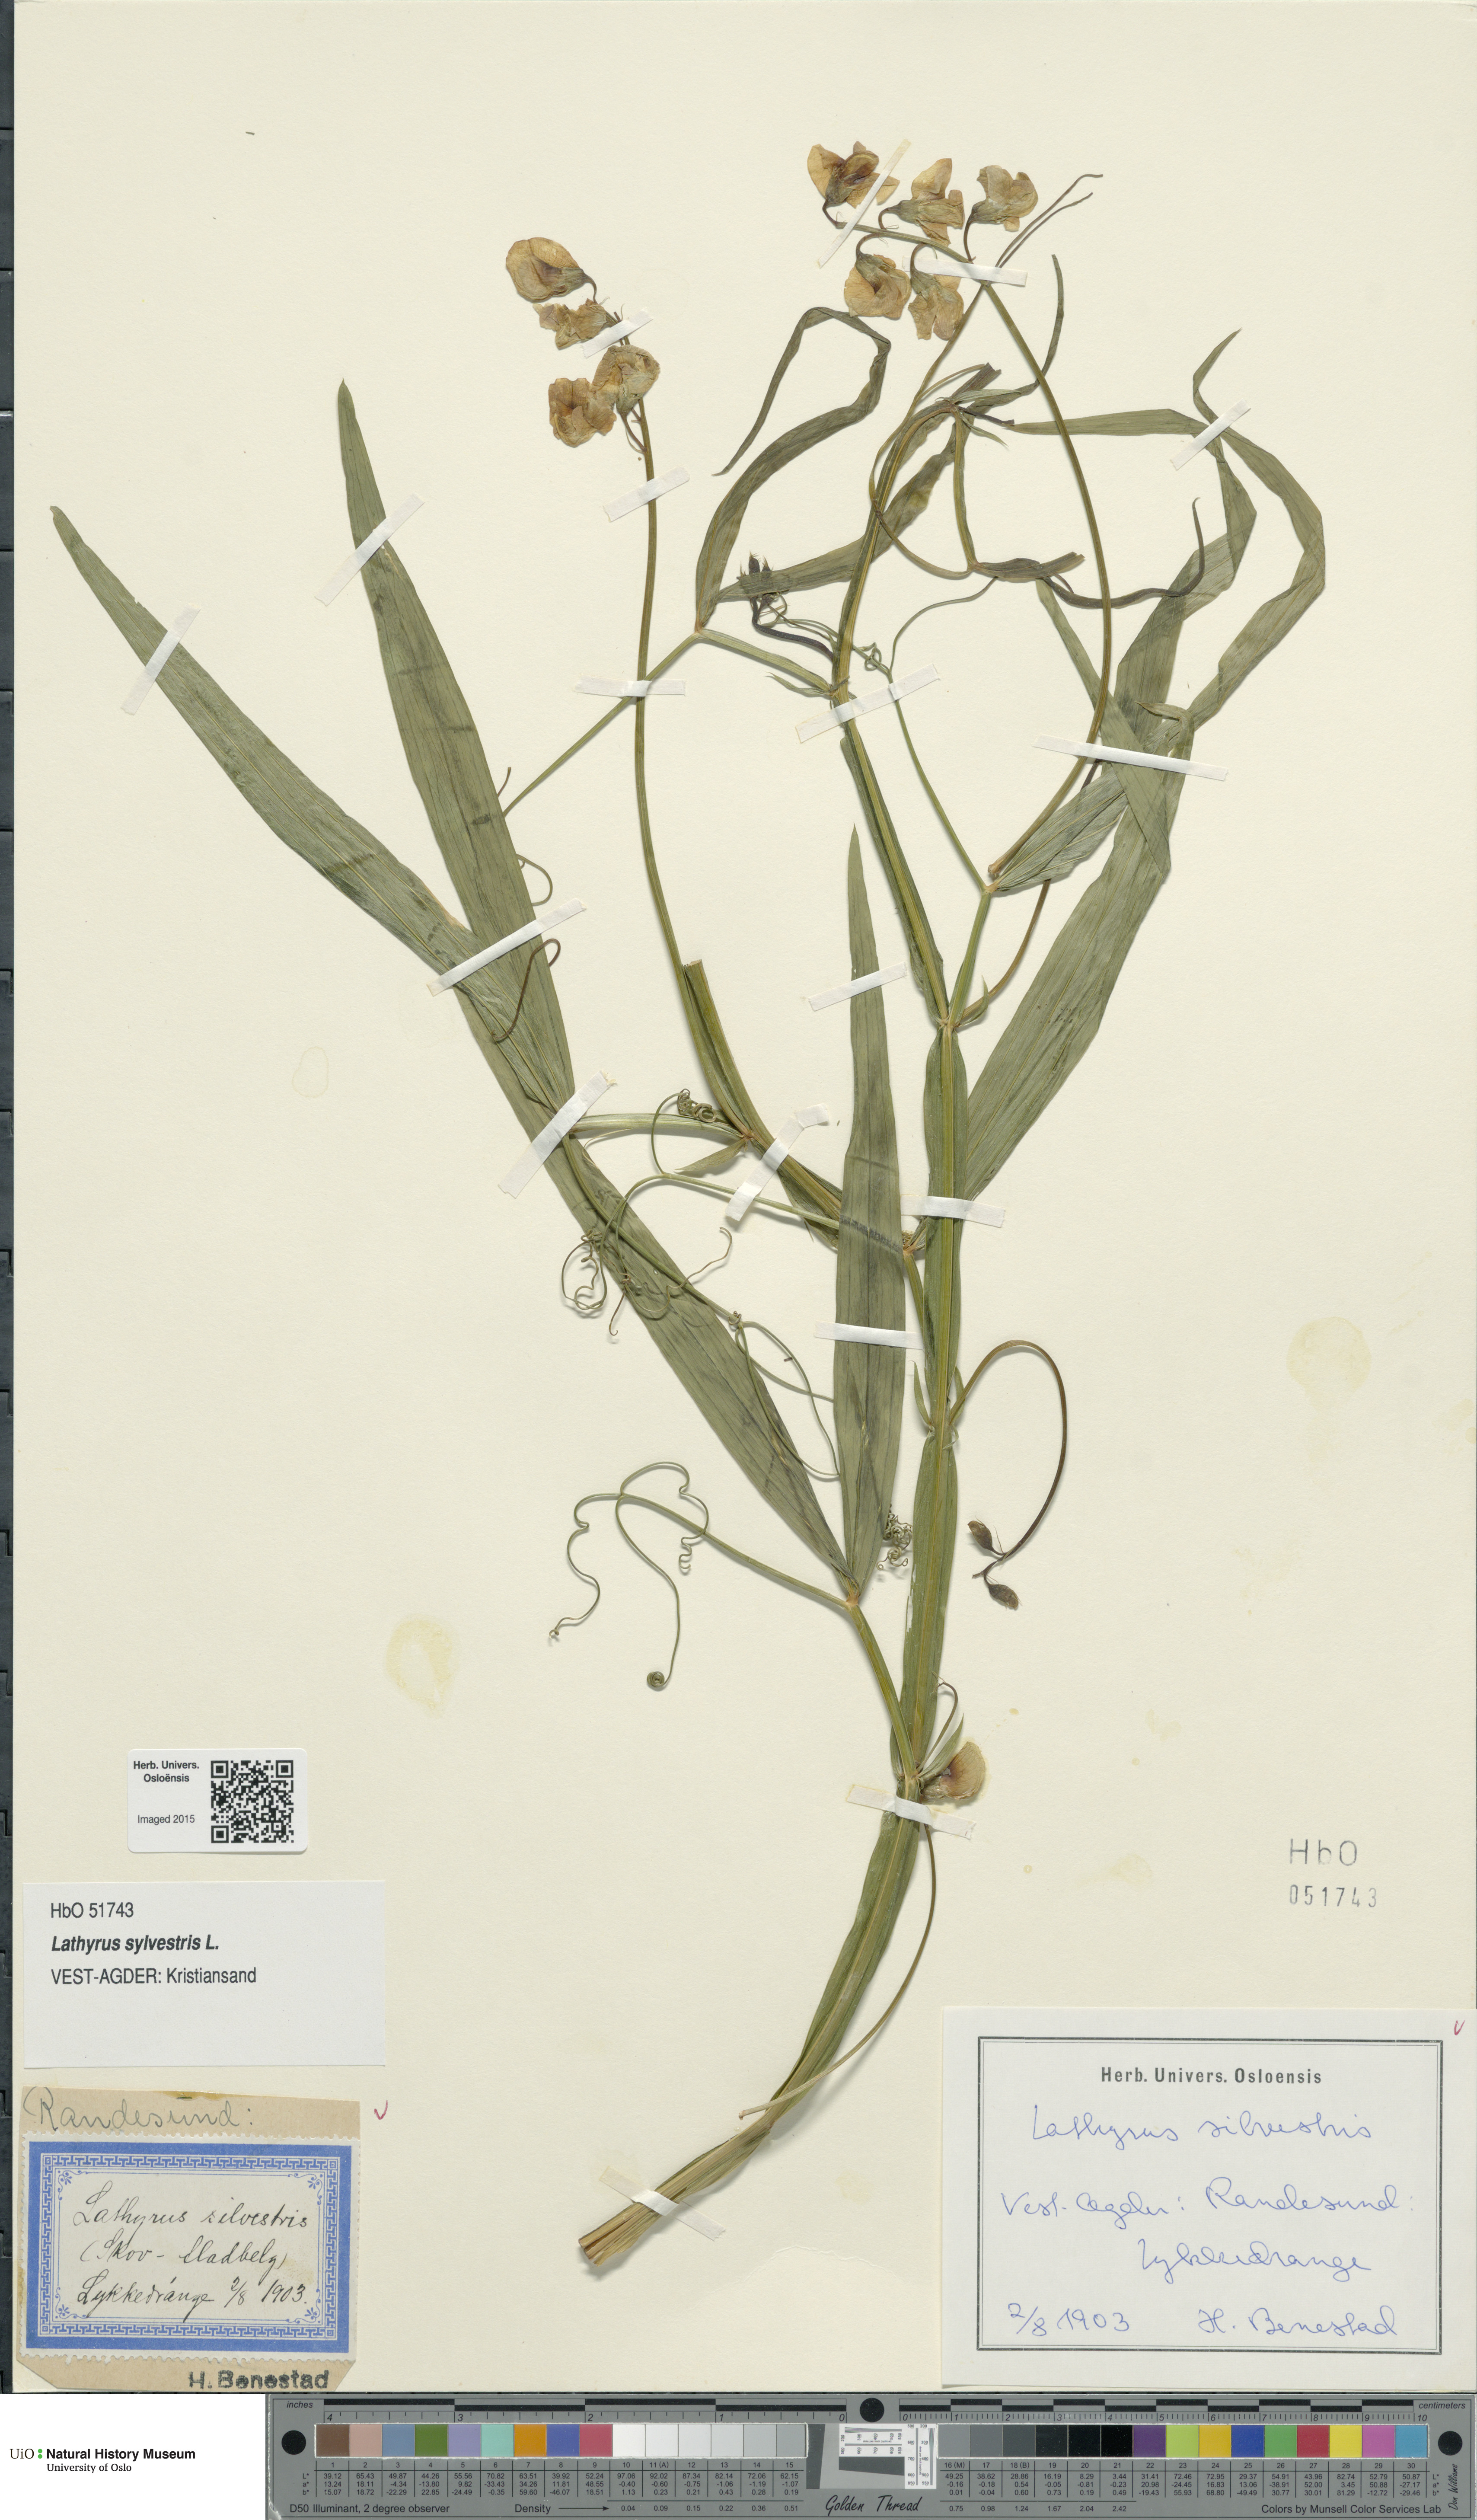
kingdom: Plantae
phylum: Tracheophyta
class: Magnoliopsida
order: Fabales
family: Fabaceae
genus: Lathyrus
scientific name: Lathyrus sylvestris
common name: Flat pea
